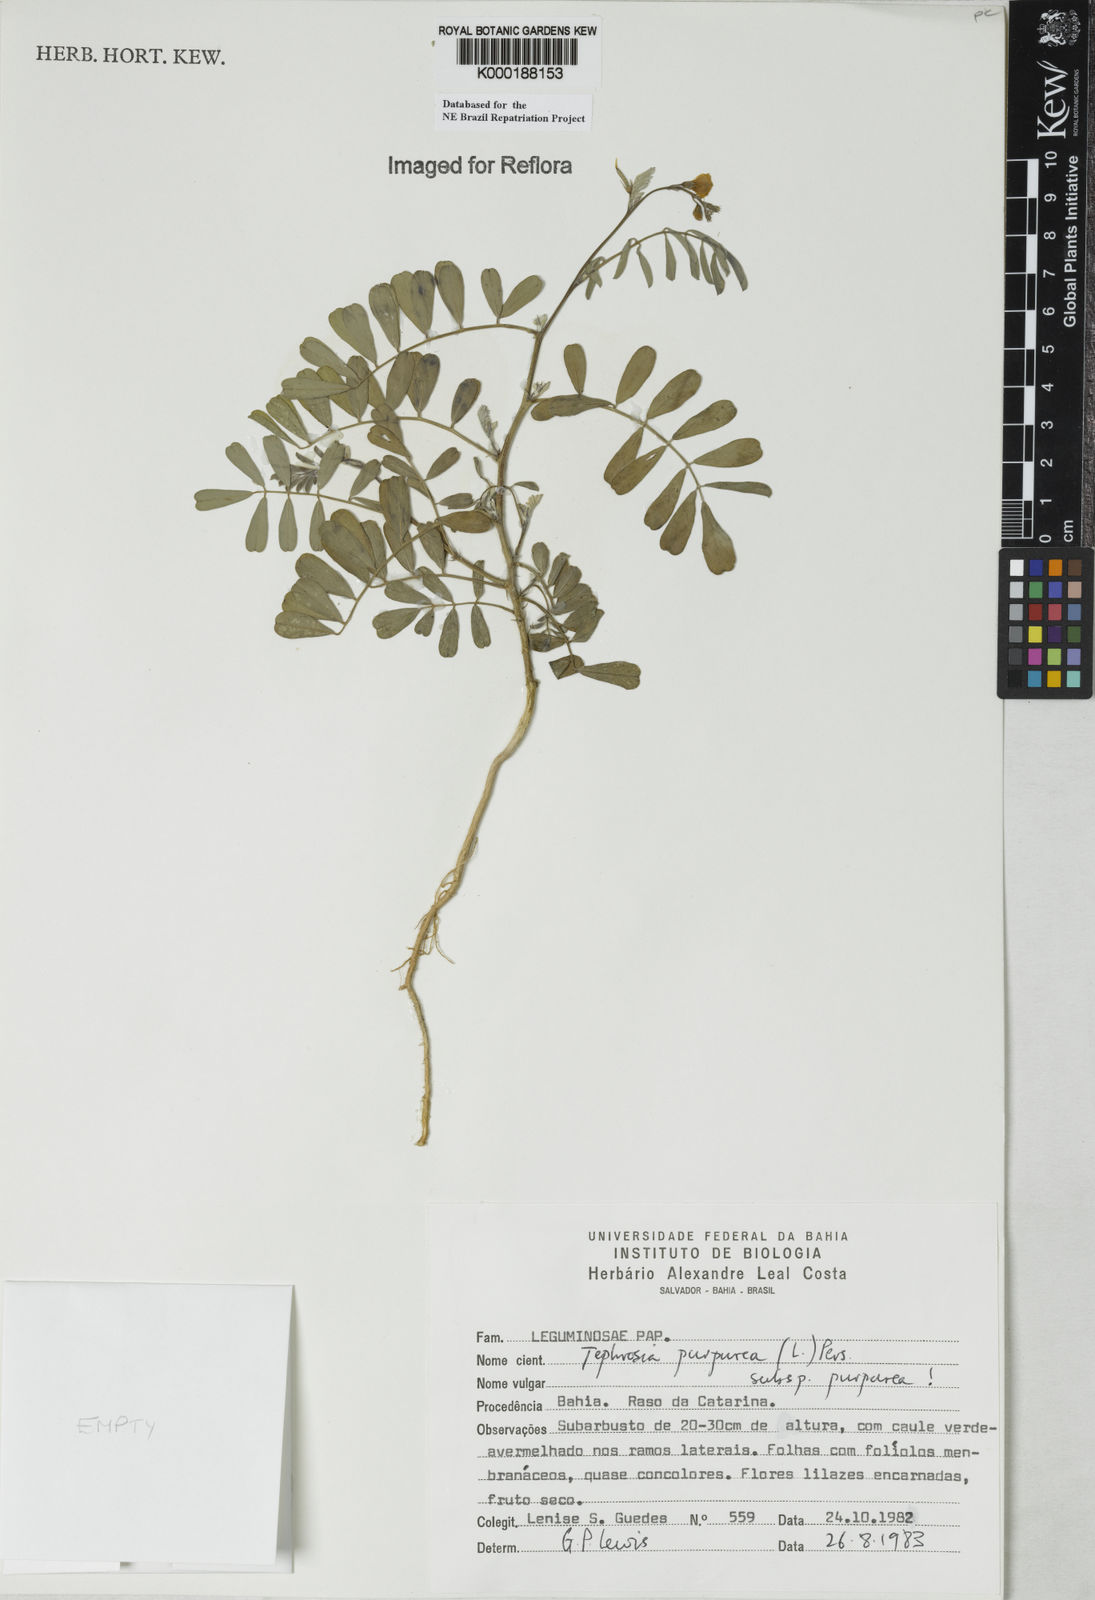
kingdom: Plantae
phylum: Tracheophyta
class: Magnoliopsida
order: Fabales
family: Fabaceae
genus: Tephrosia
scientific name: Tephrosia purpurea
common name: Fishpoison
